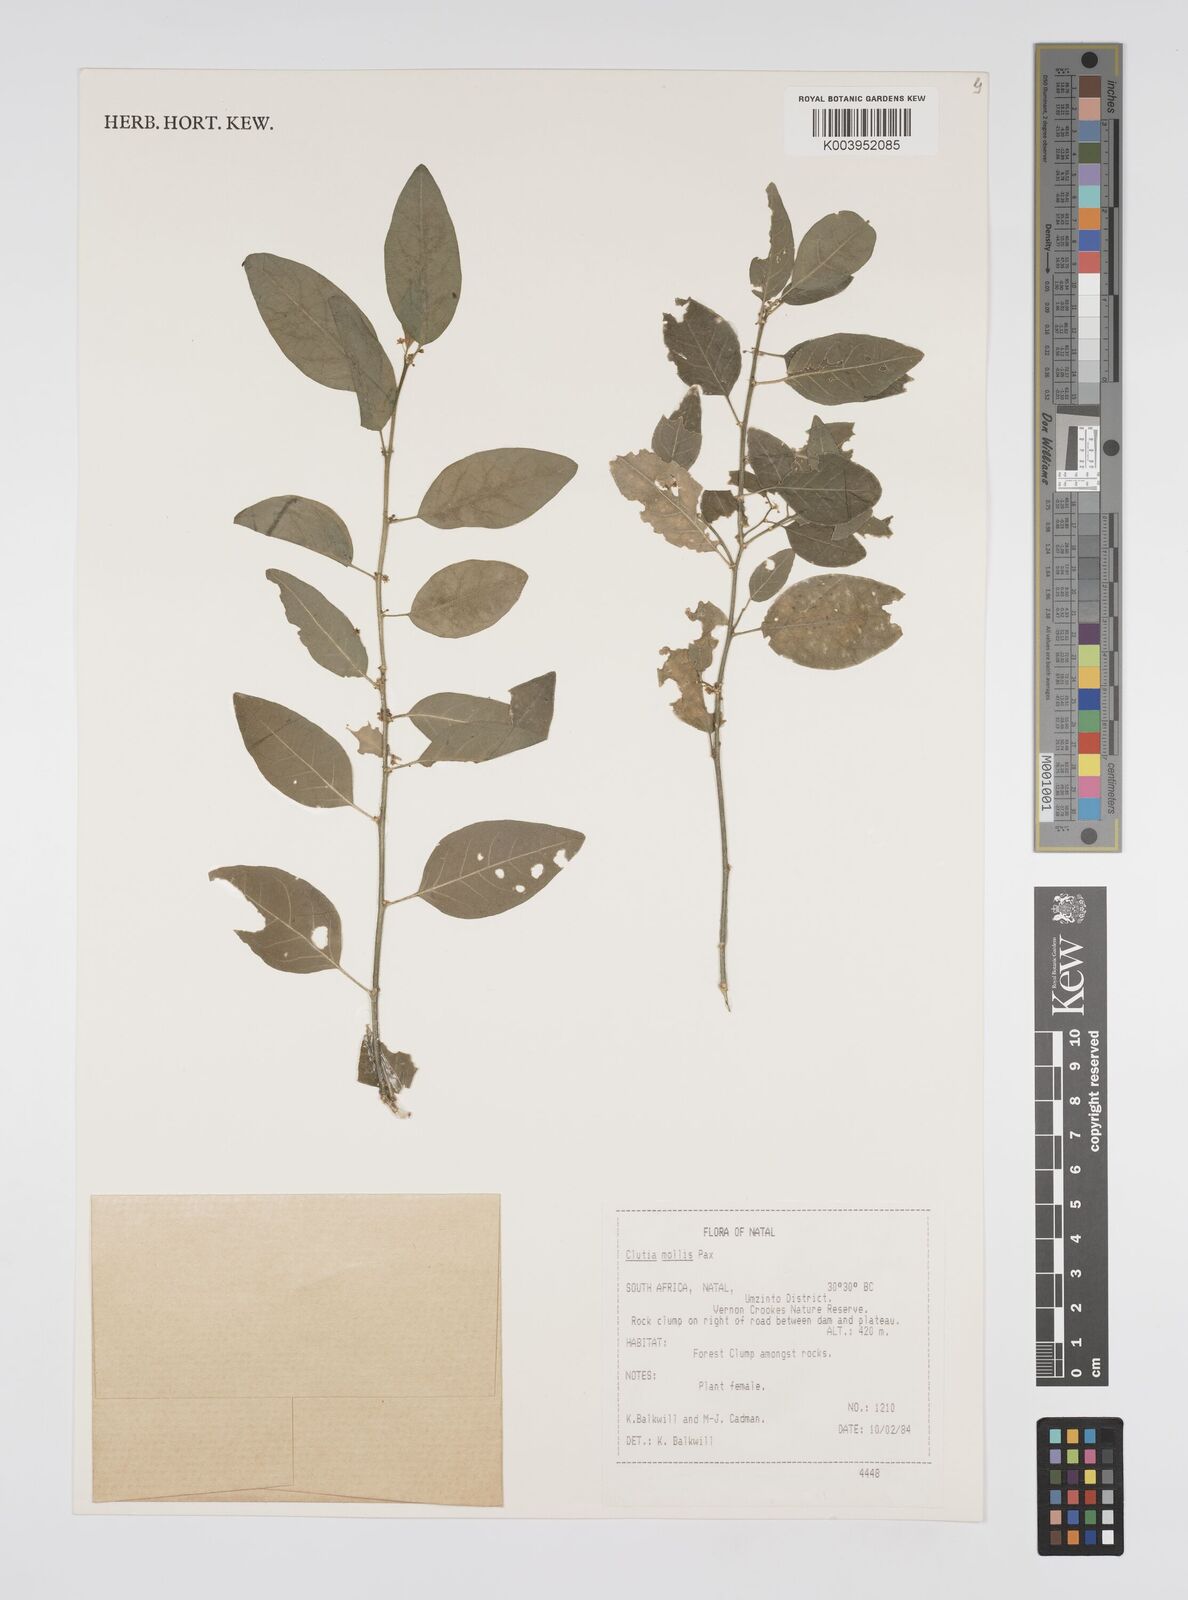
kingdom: Plantae
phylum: Tracheophyta
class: Magnoliopsida
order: Malpighiales
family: Peraceae
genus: Clutia
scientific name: Clutia abyssinica
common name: Large lightning bush
